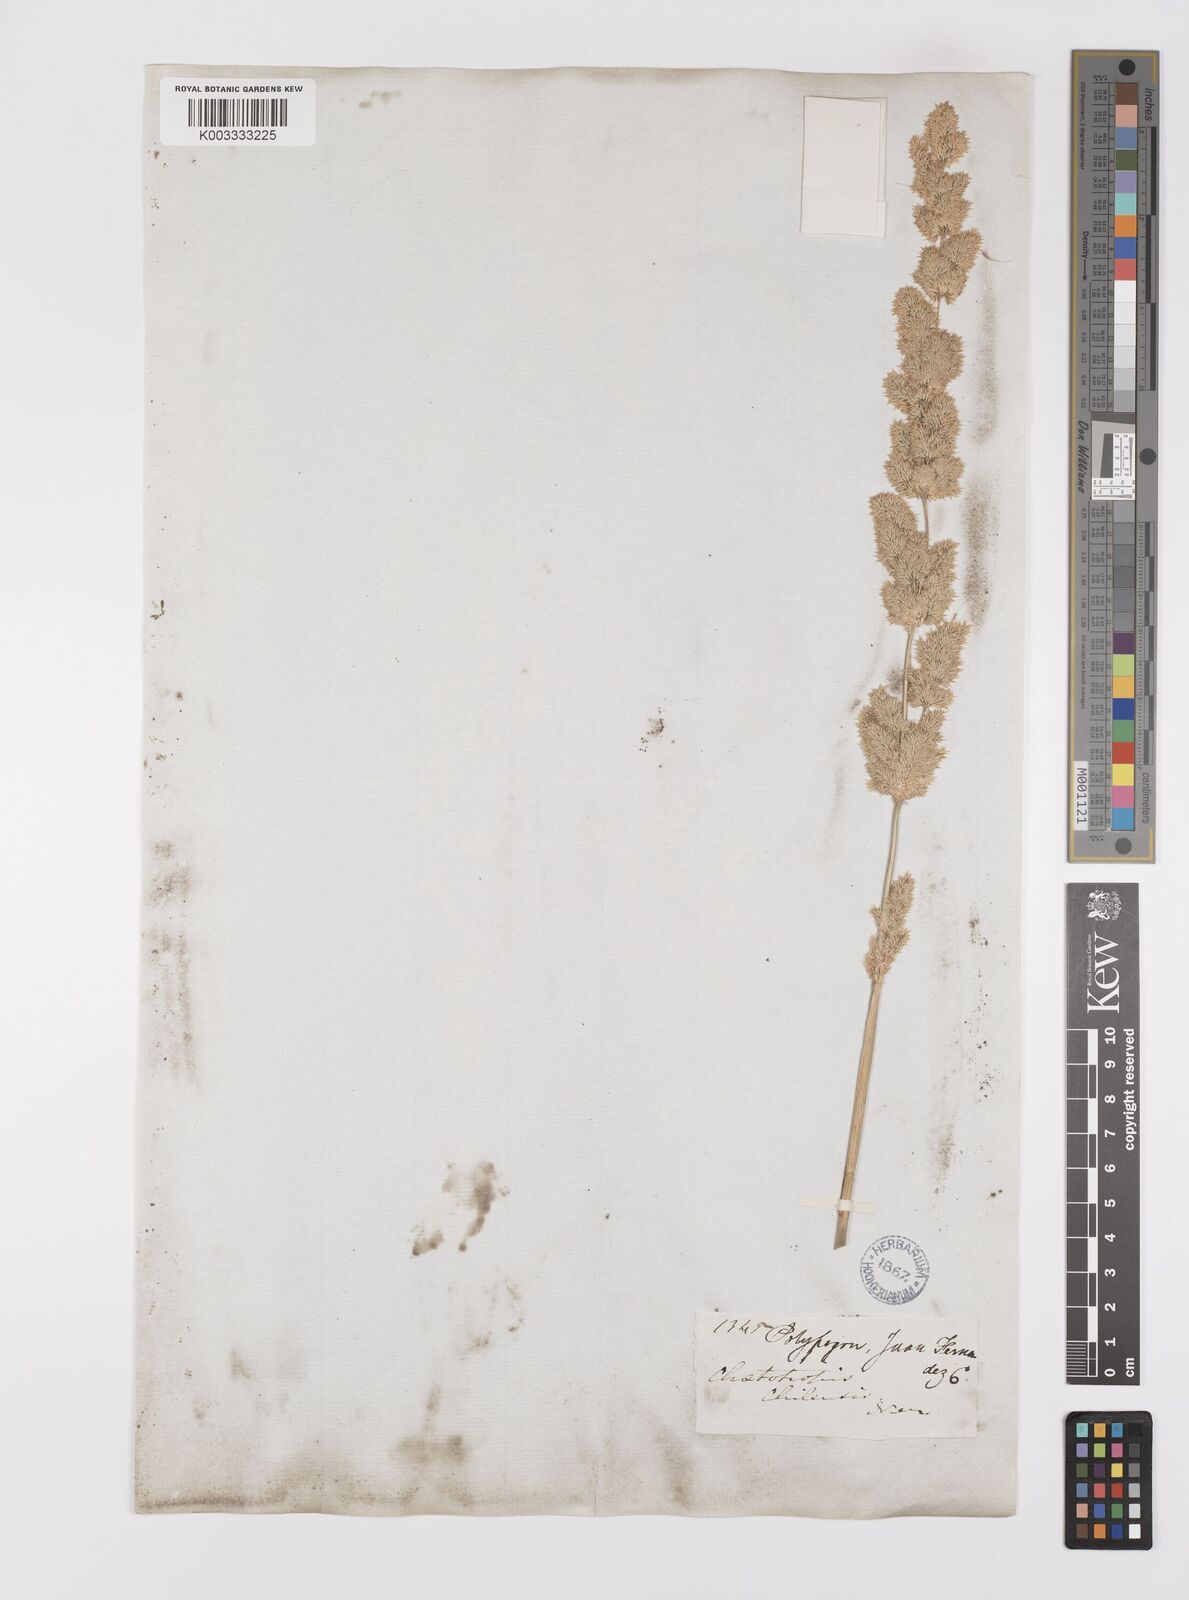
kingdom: Plantae
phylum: Tracheophyta
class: Liliopsida
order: Poales
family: Poaceae
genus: Polypogon
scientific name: Polypogon chilensis
